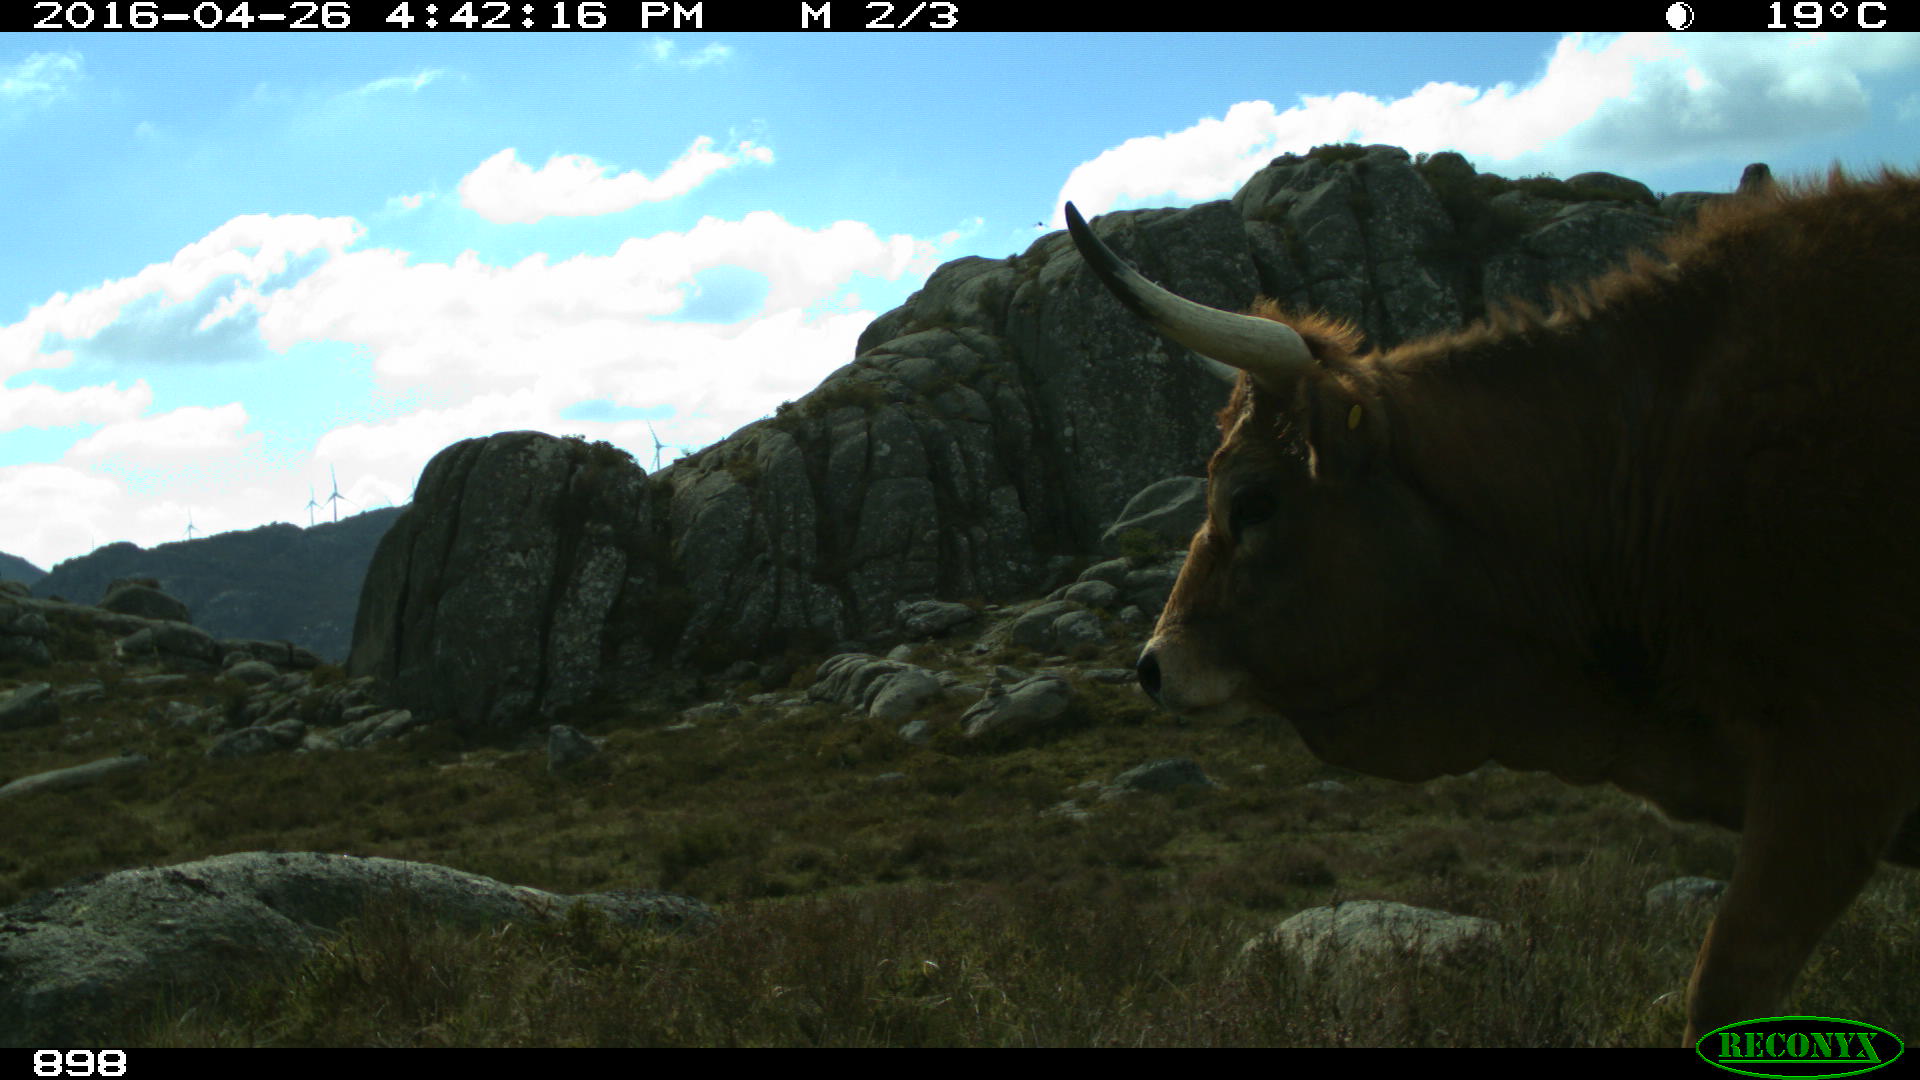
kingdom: Animalia
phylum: Chordata
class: Mammalia
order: Artiodactyla
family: Bovidae
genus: Bos
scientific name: Bos taurus
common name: Domesticated cattle
